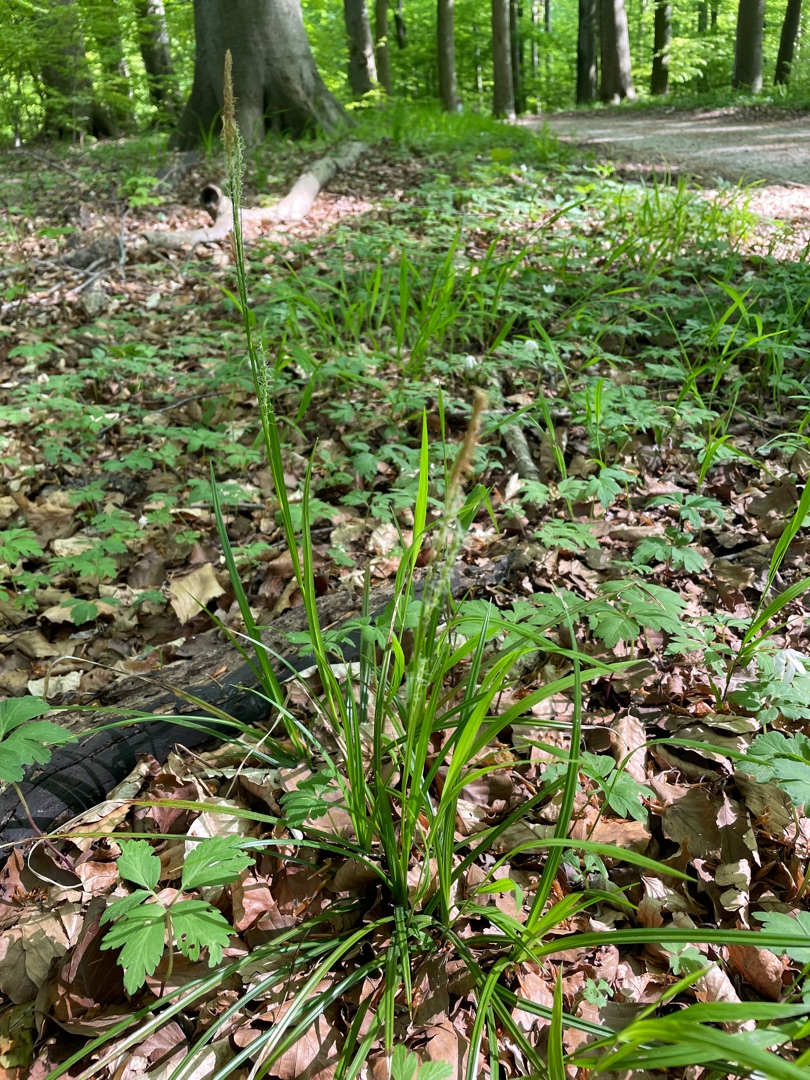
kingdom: Plantae
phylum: Tracheophyta
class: Liliopsida
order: Poales
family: Cyperaceae
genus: Carex
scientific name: Carex sylvatica
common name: Skov-star
